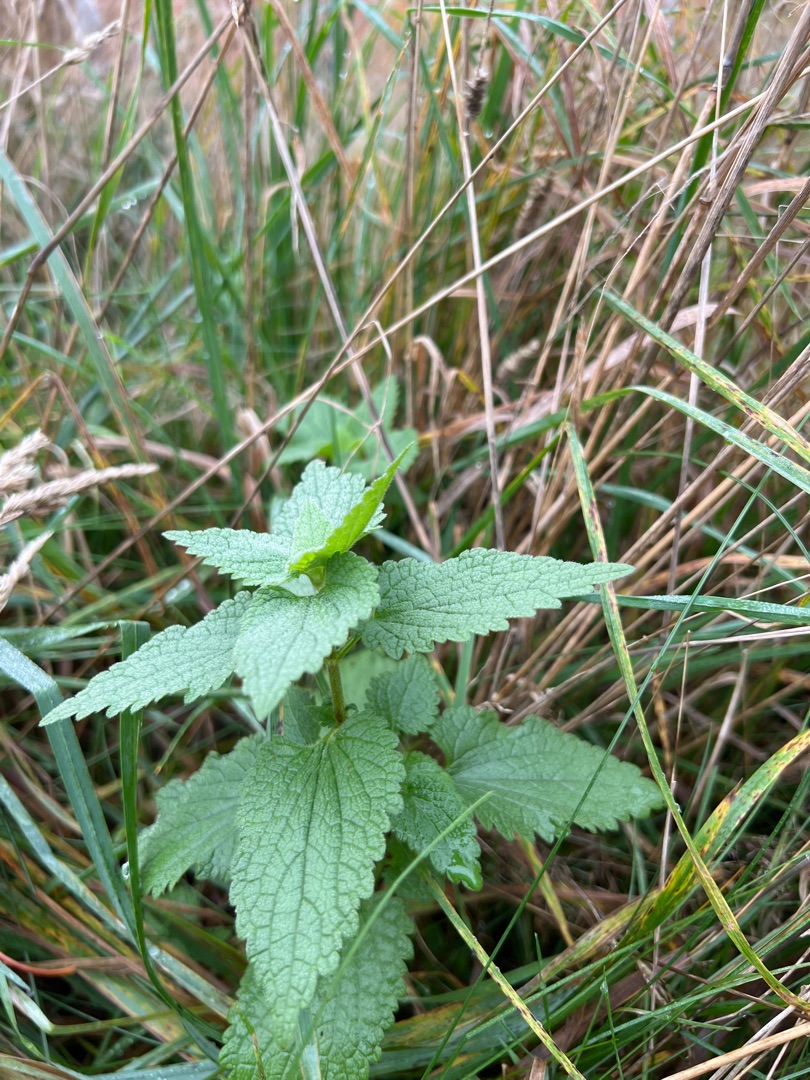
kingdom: Plantae
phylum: Tracheophyta
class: Magnoliopsida
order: Lamiales
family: Lamiaceae
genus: Lamium
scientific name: Lamium album
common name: Døvnælde
